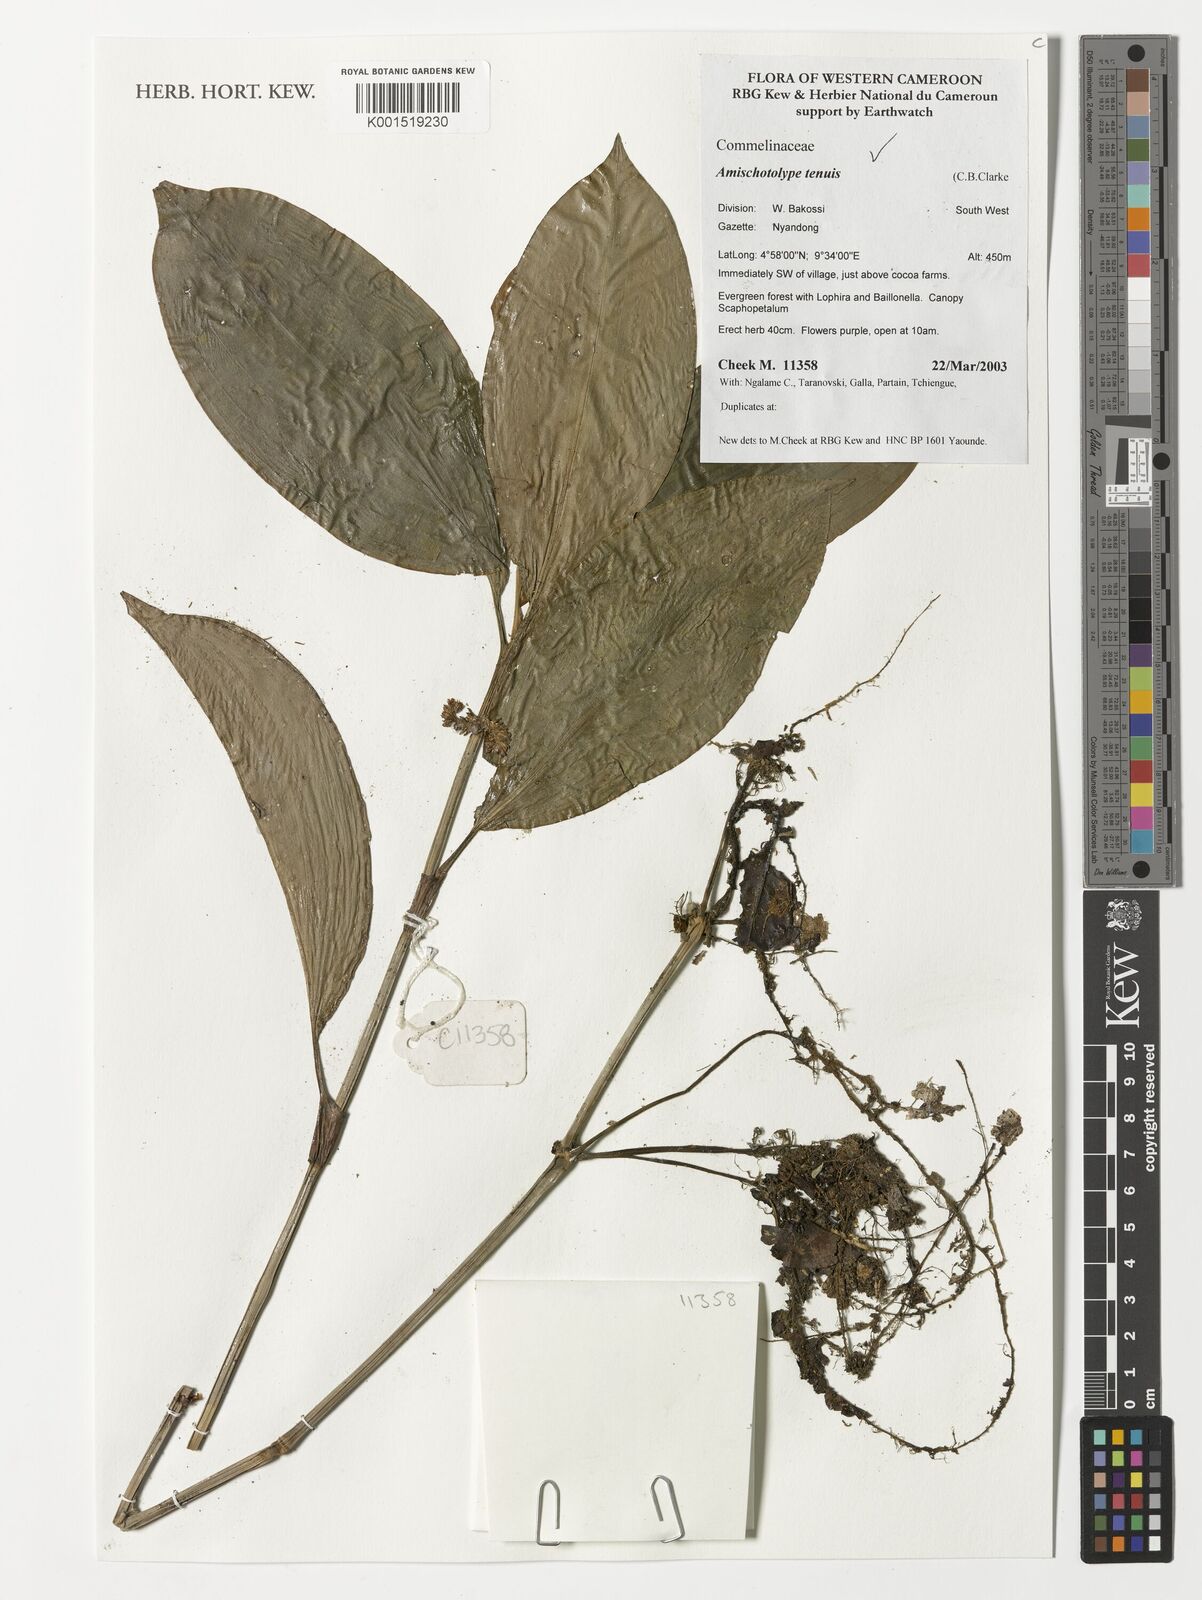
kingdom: Plantae
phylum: Tracheophyta
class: Liliopsida
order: Commelinales
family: Commelinaceae
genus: Amischotolype
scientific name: Amischotolype tenuis
